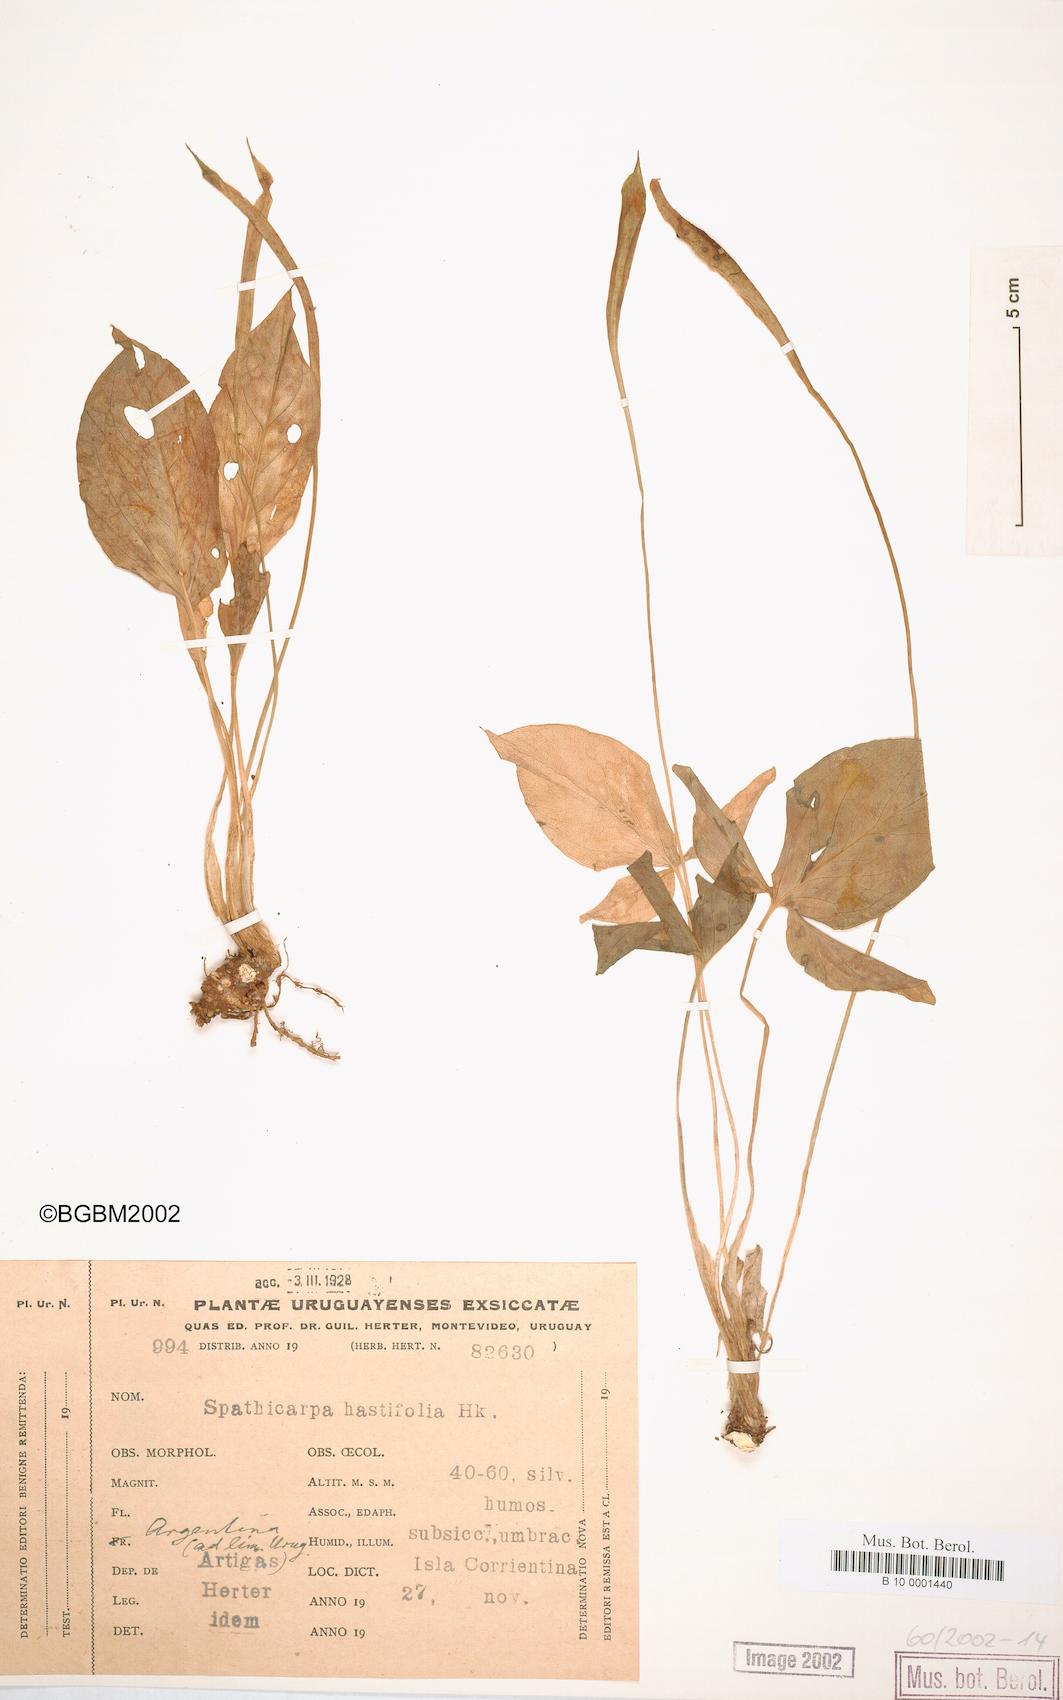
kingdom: Plantae
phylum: Tracheophyta
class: Liliopsida
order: Alismatales
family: Araceae
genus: Spathicarpa
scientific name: Spathicarpa hastifolia
